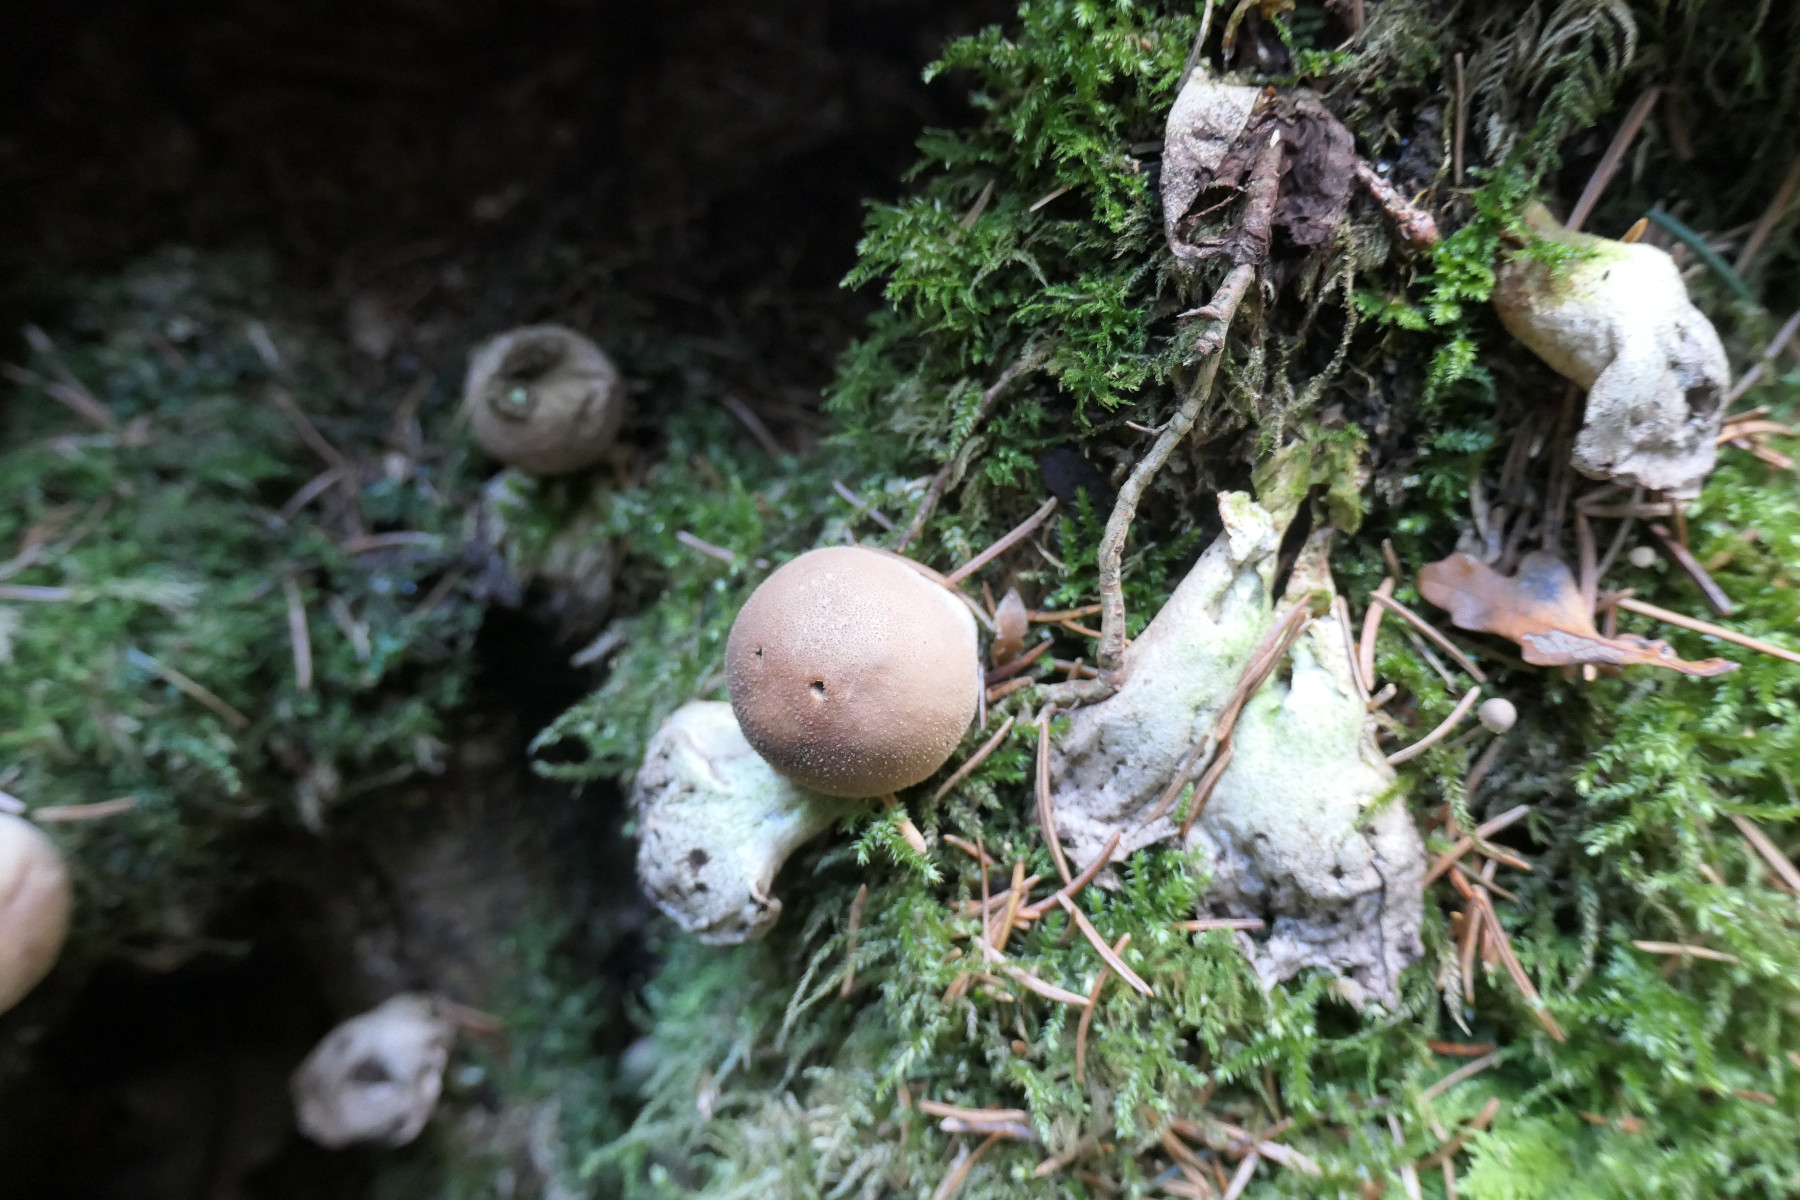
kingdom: Fungi
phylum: Basidiomycota
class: Agaricomycetes
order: Agaricales
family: Lycoperdaceae
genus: Apioperdon
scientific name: Apioperdon pyriforme
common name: pære-støvbold
